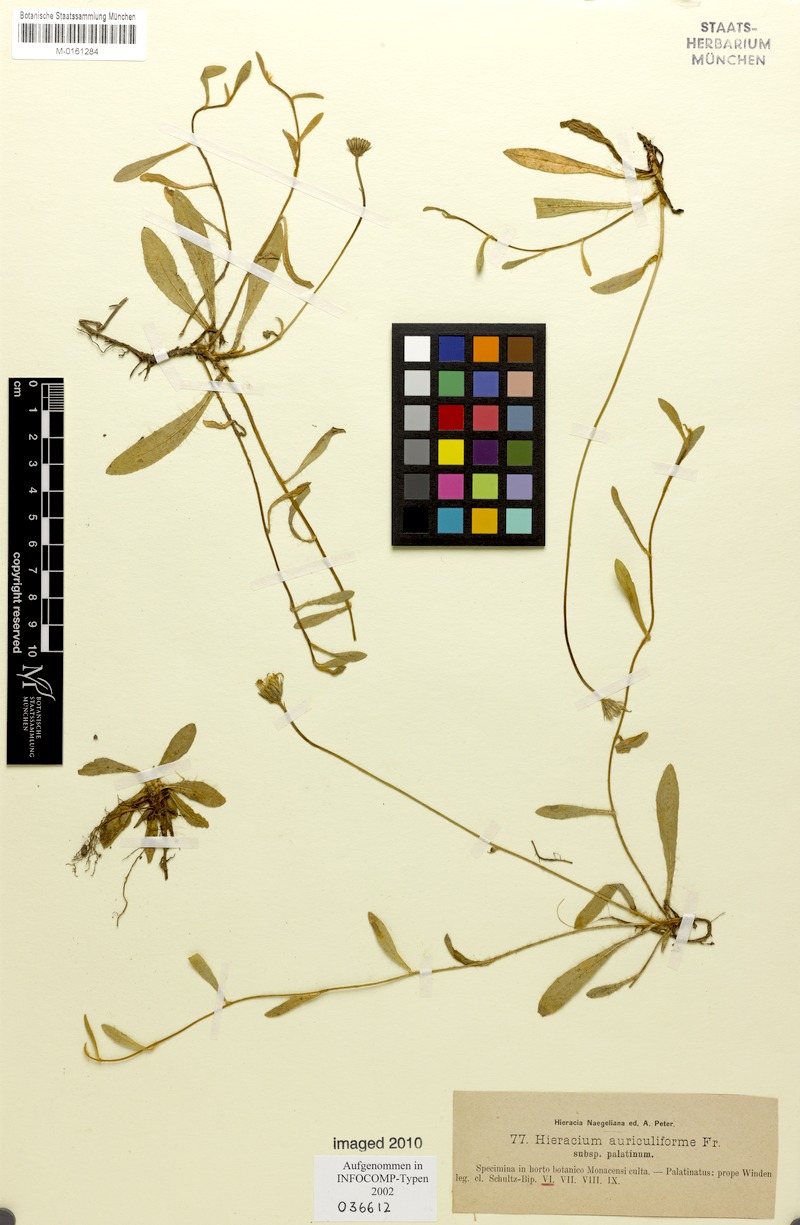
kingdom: Plantae
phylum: Tracheophyta
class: Magnoliopsida
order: Asterales
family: Asteraceae
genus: Pilosella
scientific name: Pilosella schultesii
